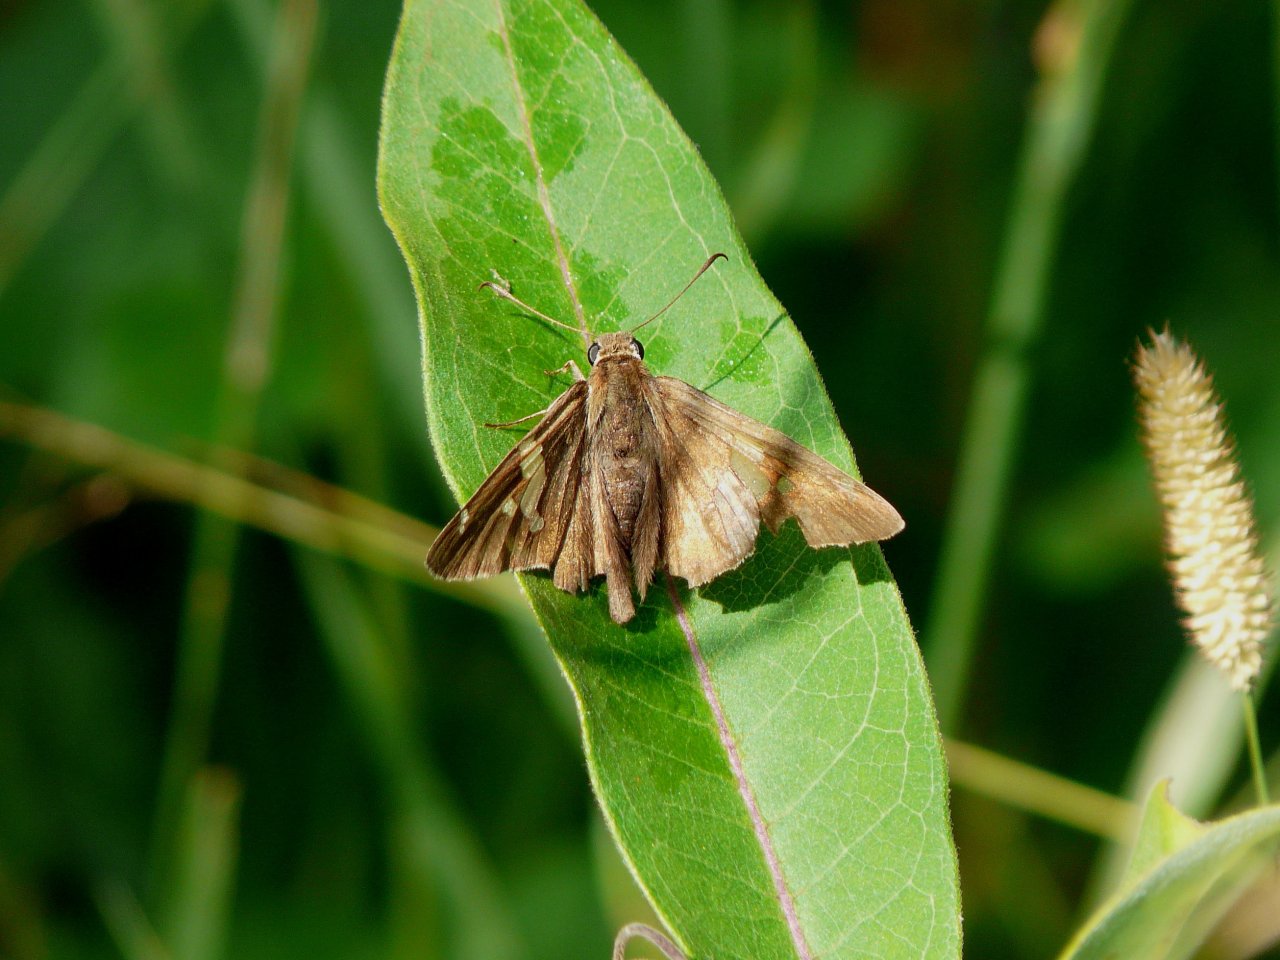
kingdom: Animalia
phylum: Arthropoda
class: Insecta
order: Lepidoptera
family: Hesperiidae
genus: Epargyreus
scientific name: Epargyreus clarus
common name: Silver-spotted Skipper
